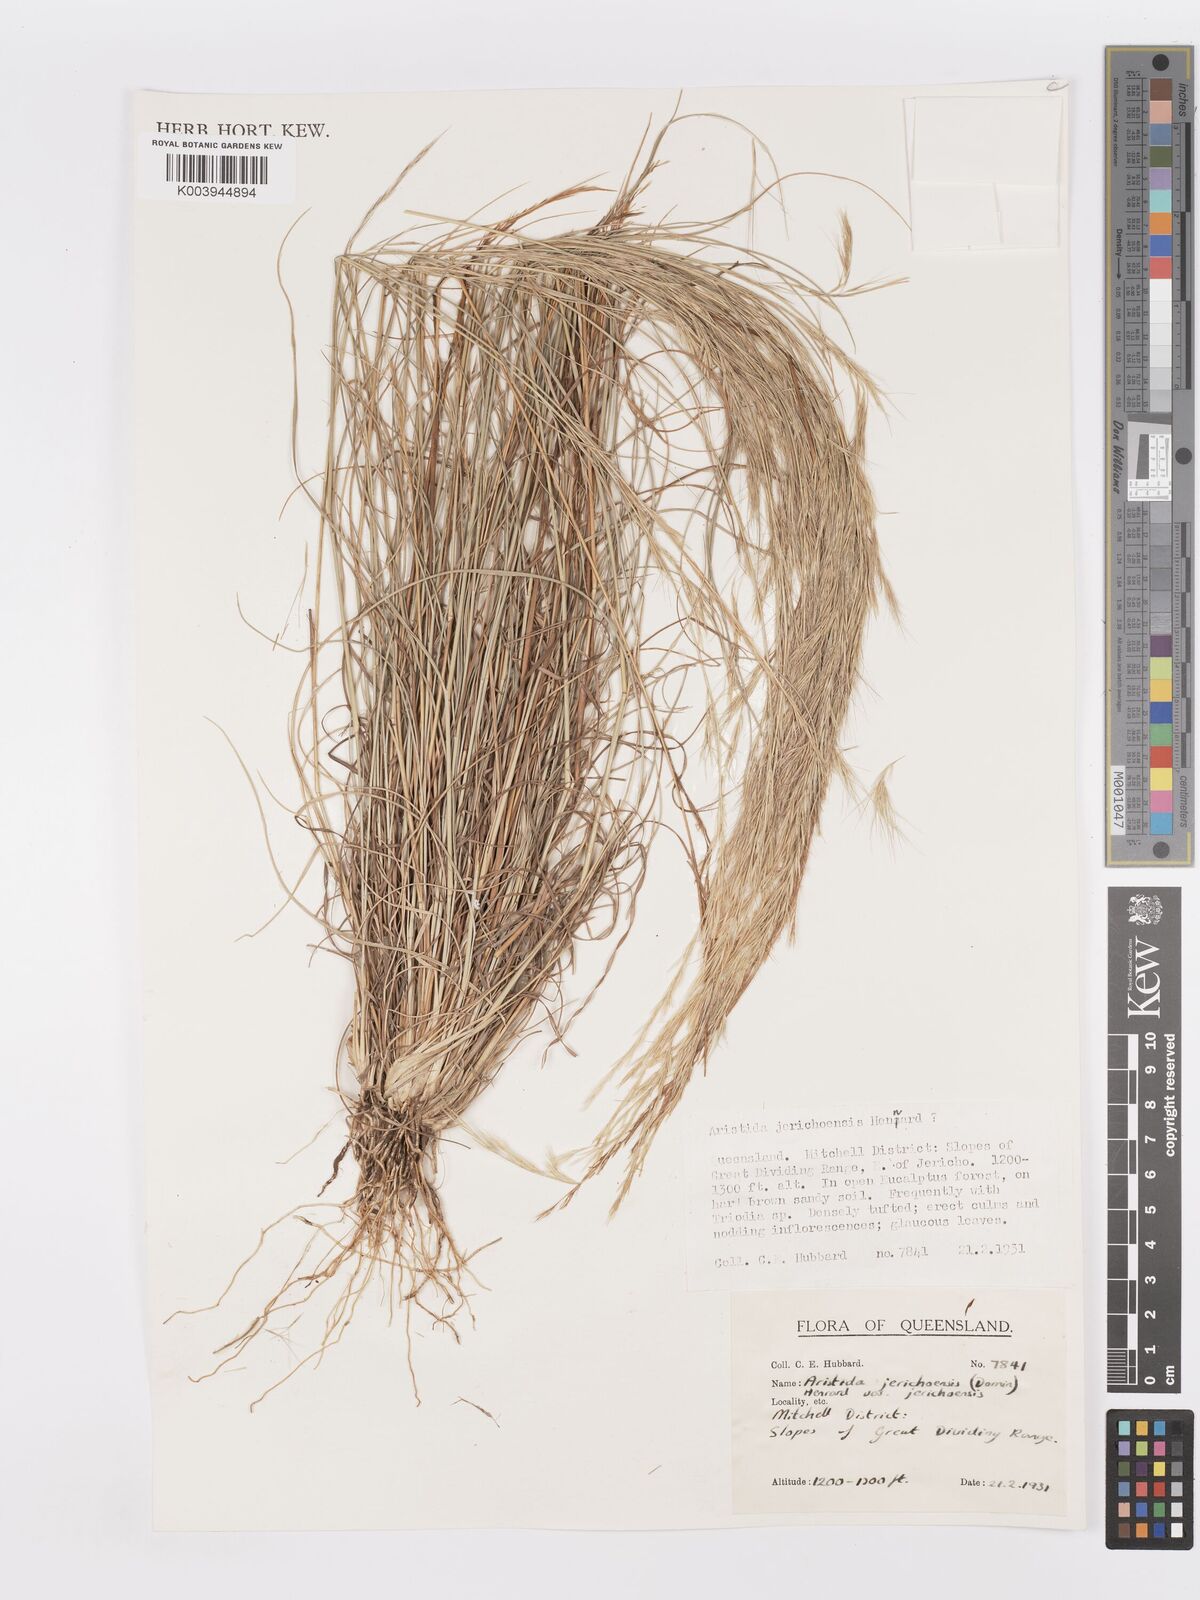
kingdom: Plantae
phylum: Tracheophyta
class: Liliopsida
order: Poales
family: Poaceae
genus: Aristida
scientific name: Aristida jerichoensis
